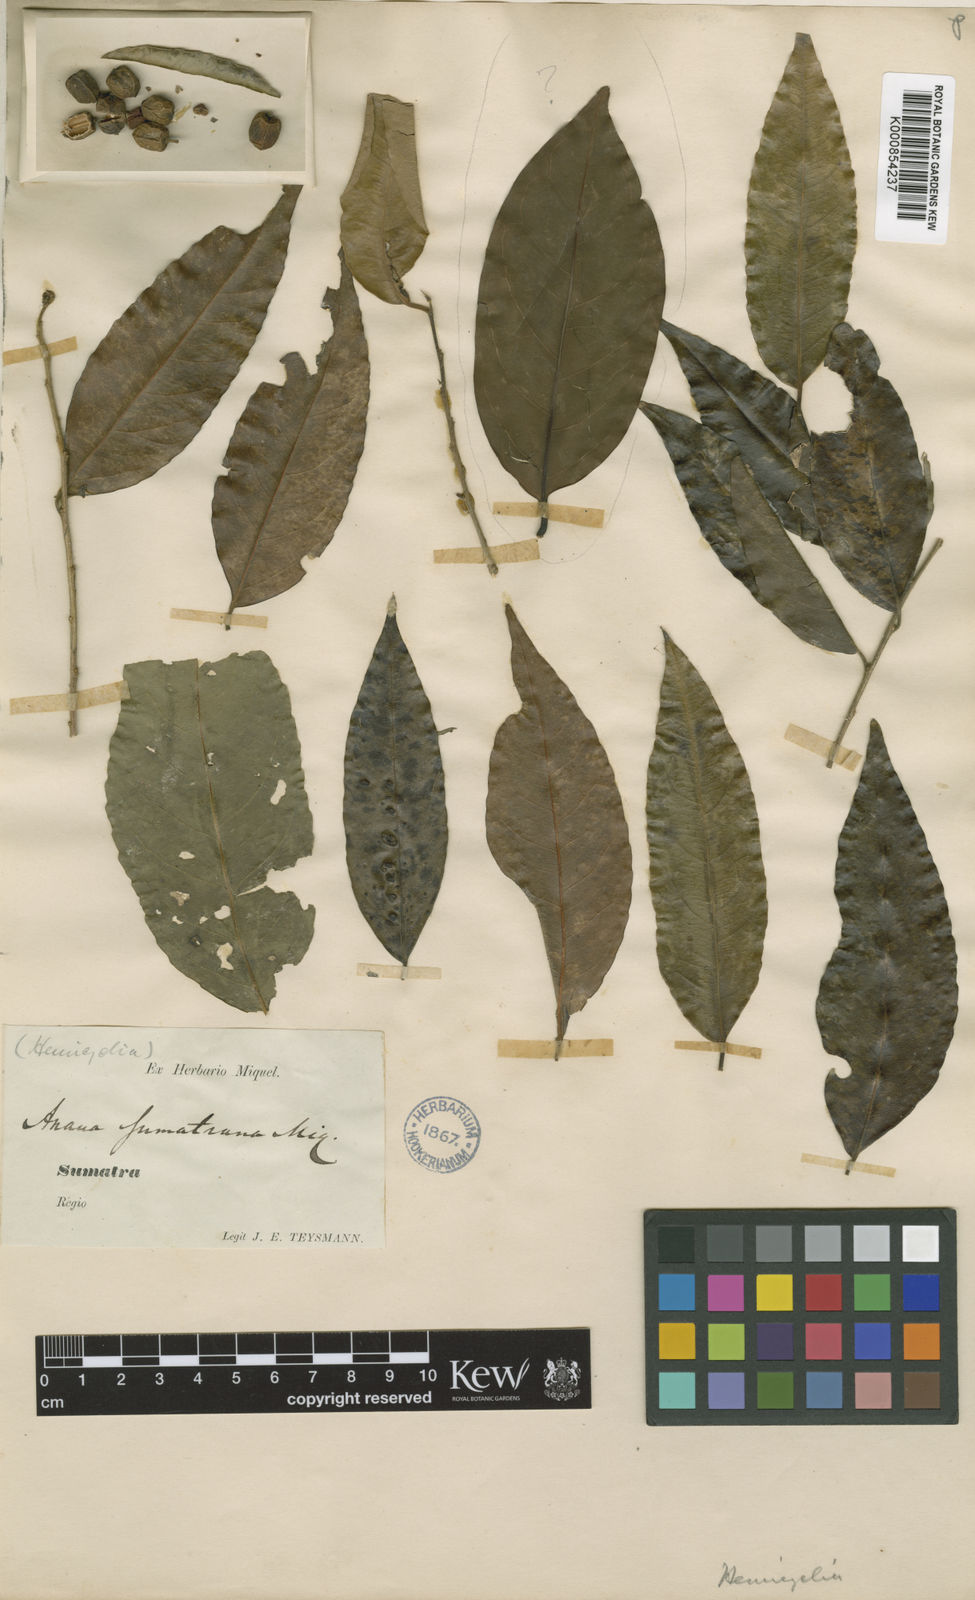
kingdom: Plantae
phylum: Tracheophyta
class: Magnoliopsida
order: Malpighiales
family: Putranjivaceae
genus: Drypetes
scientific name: Drypetes sumatrana
